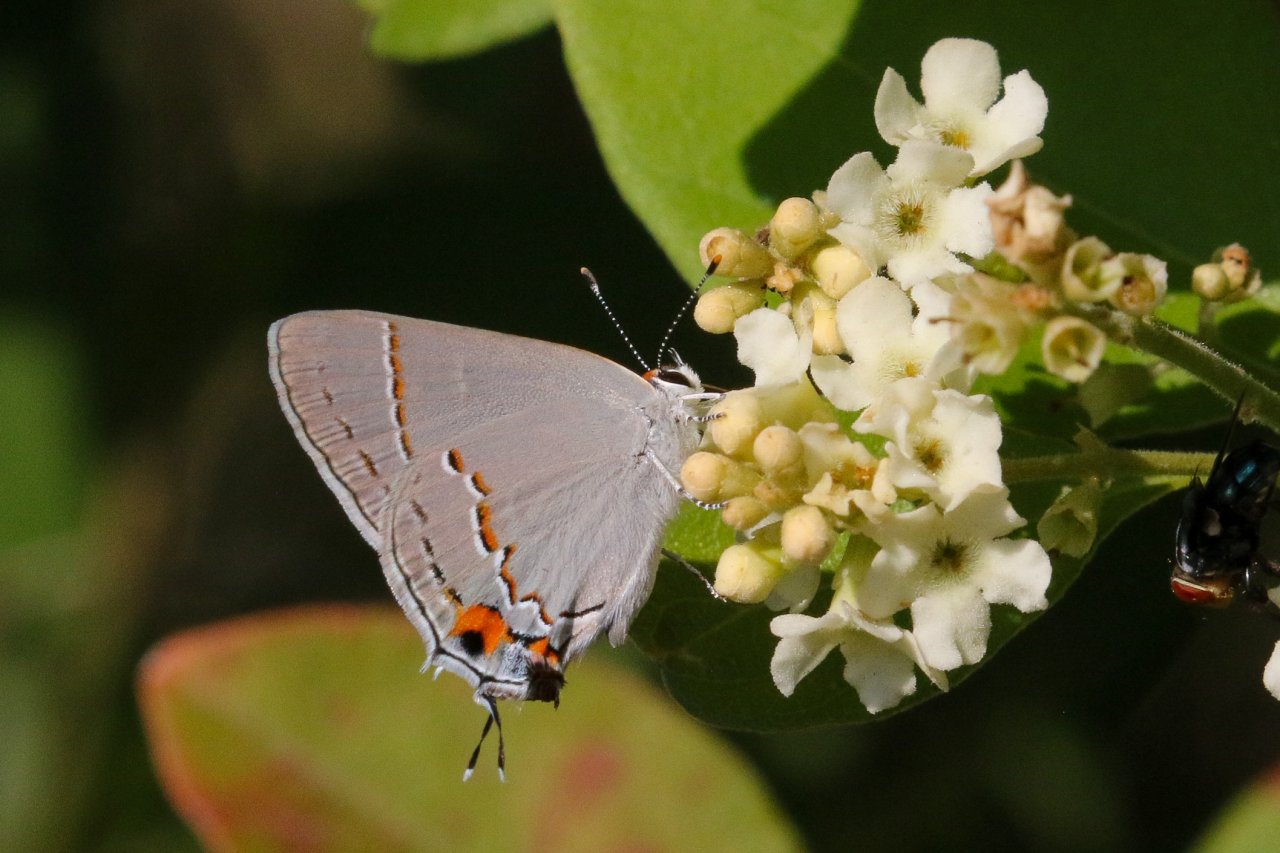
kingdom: Animalia
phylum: Arthropoda
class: Insecta
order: Lepidoptera
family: Lycaenidae
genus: Strymon
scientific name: Strymon melinus
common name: Gray Hairstreak
